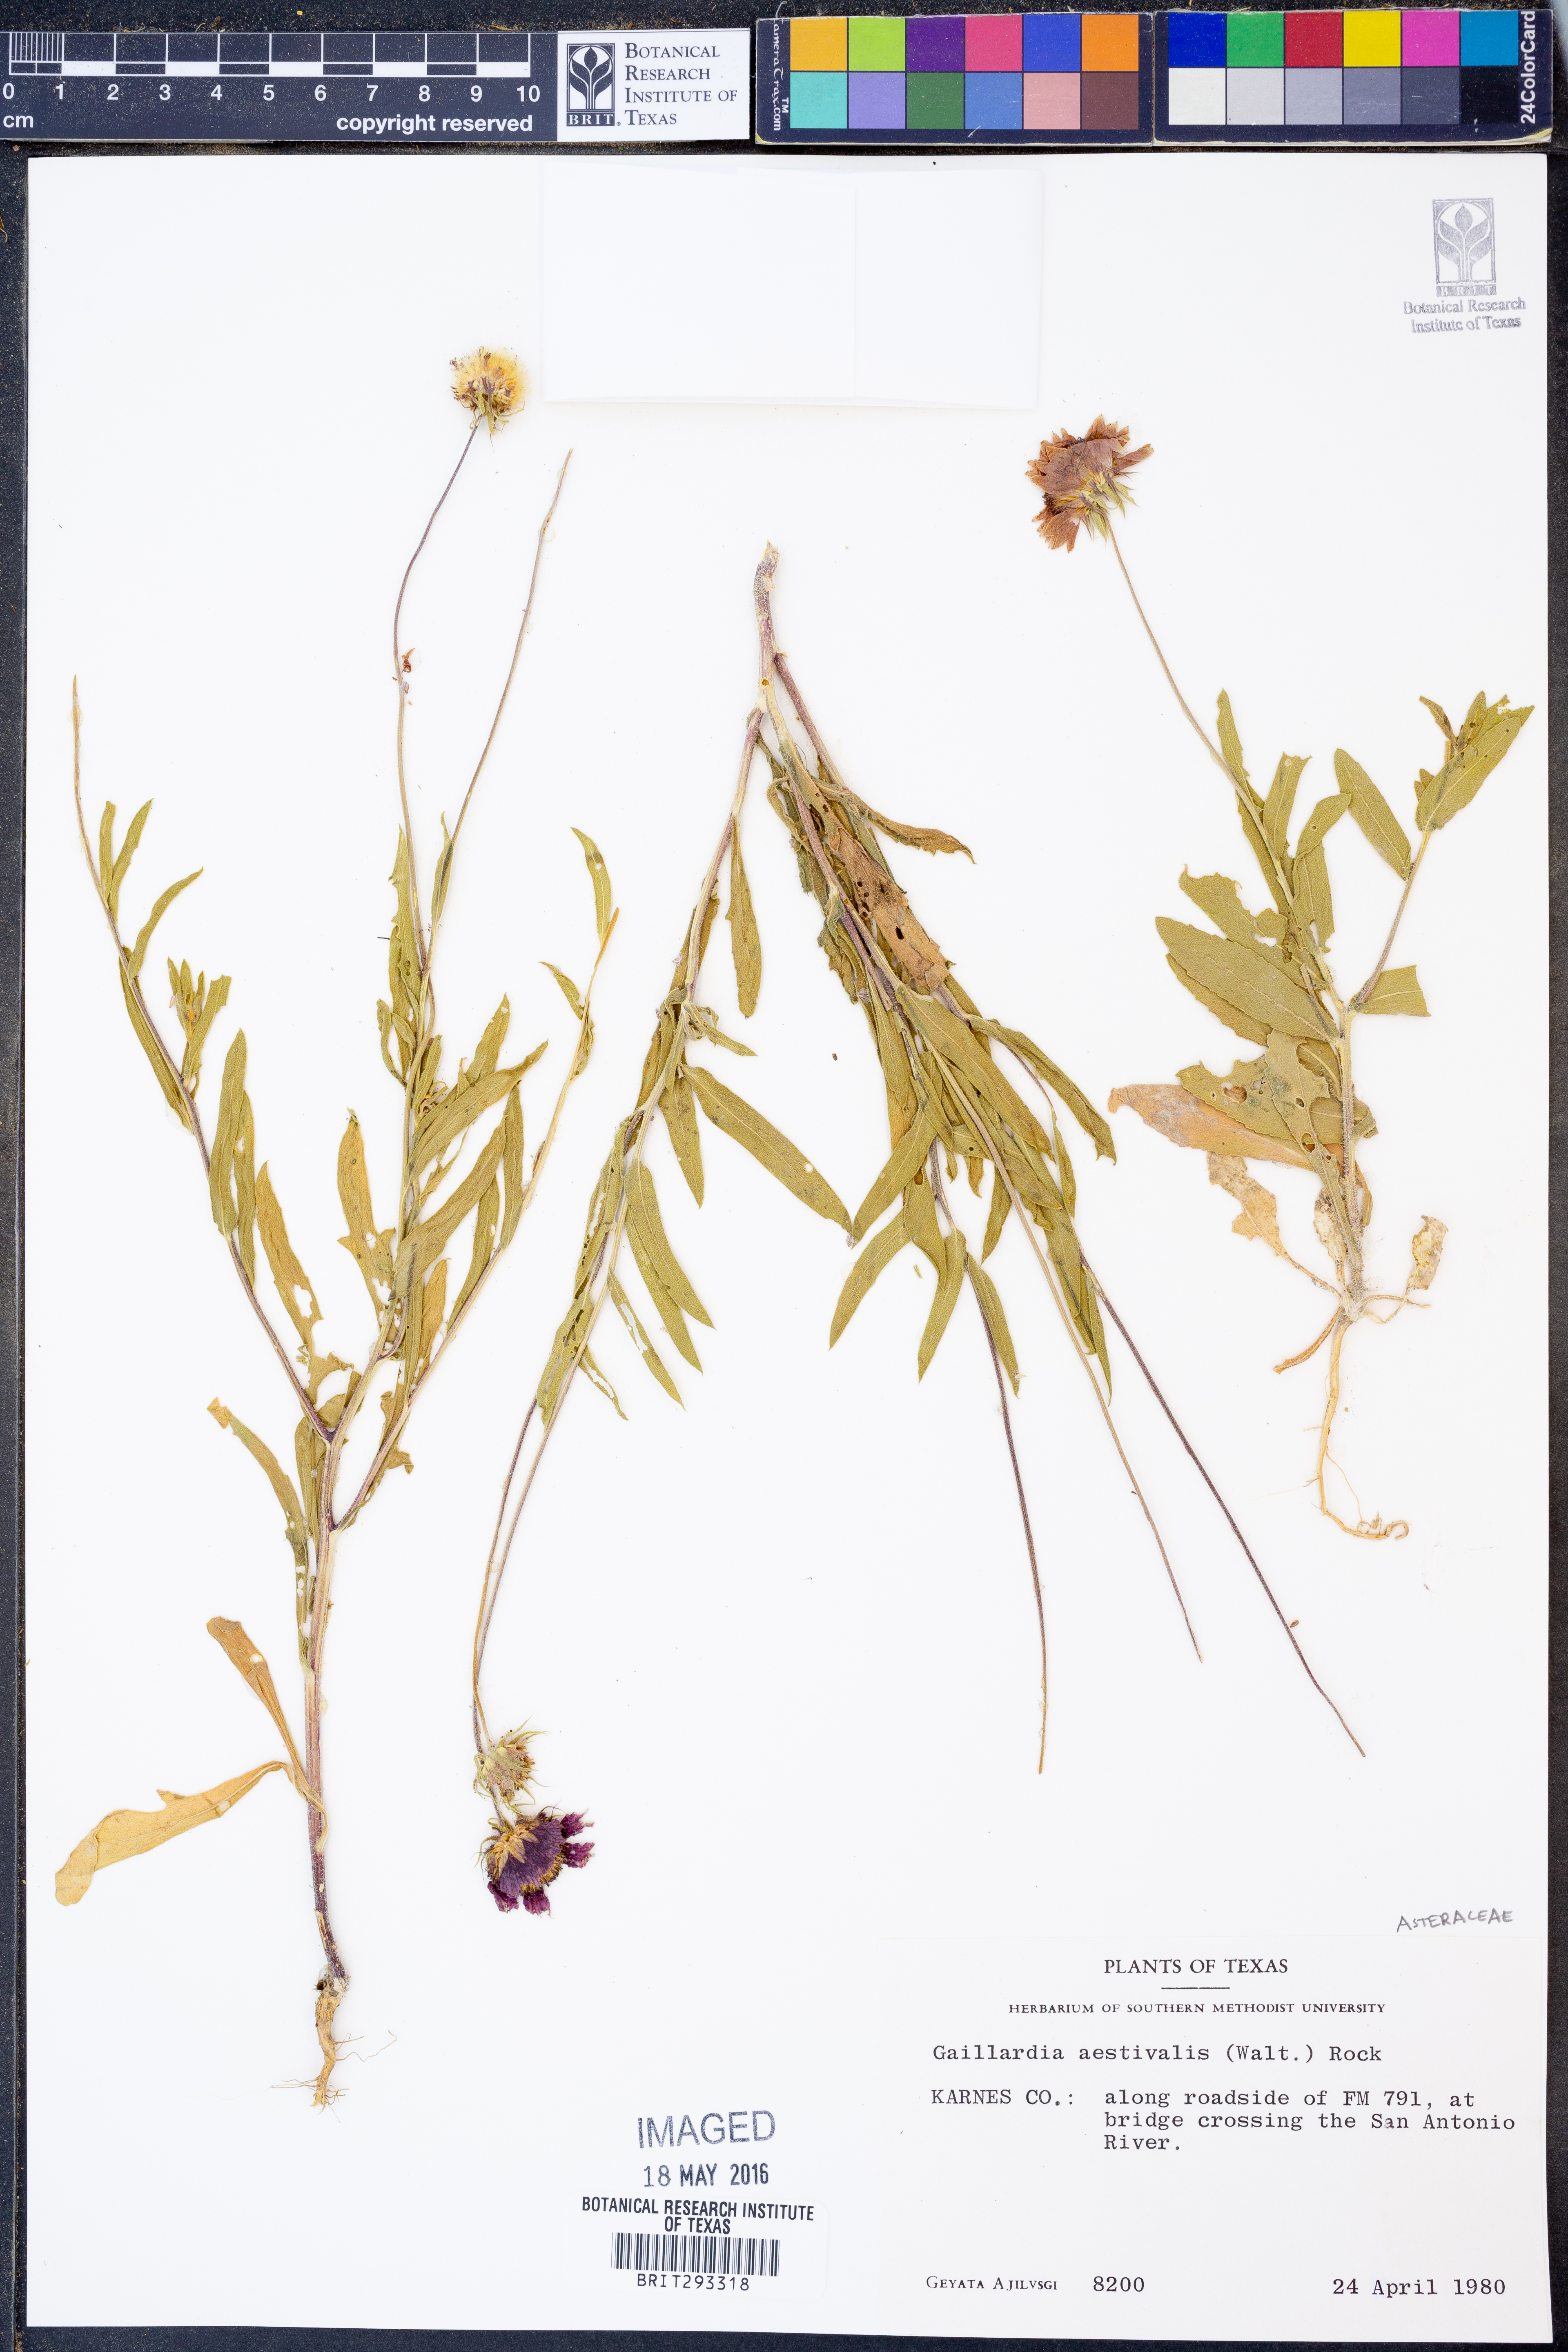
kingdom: Plantae
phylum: Tracheophyta
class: Magnoliopsida
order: Asterales
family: Asteraceae
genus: Gaillardia
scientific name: Gaillardia aestivalis
